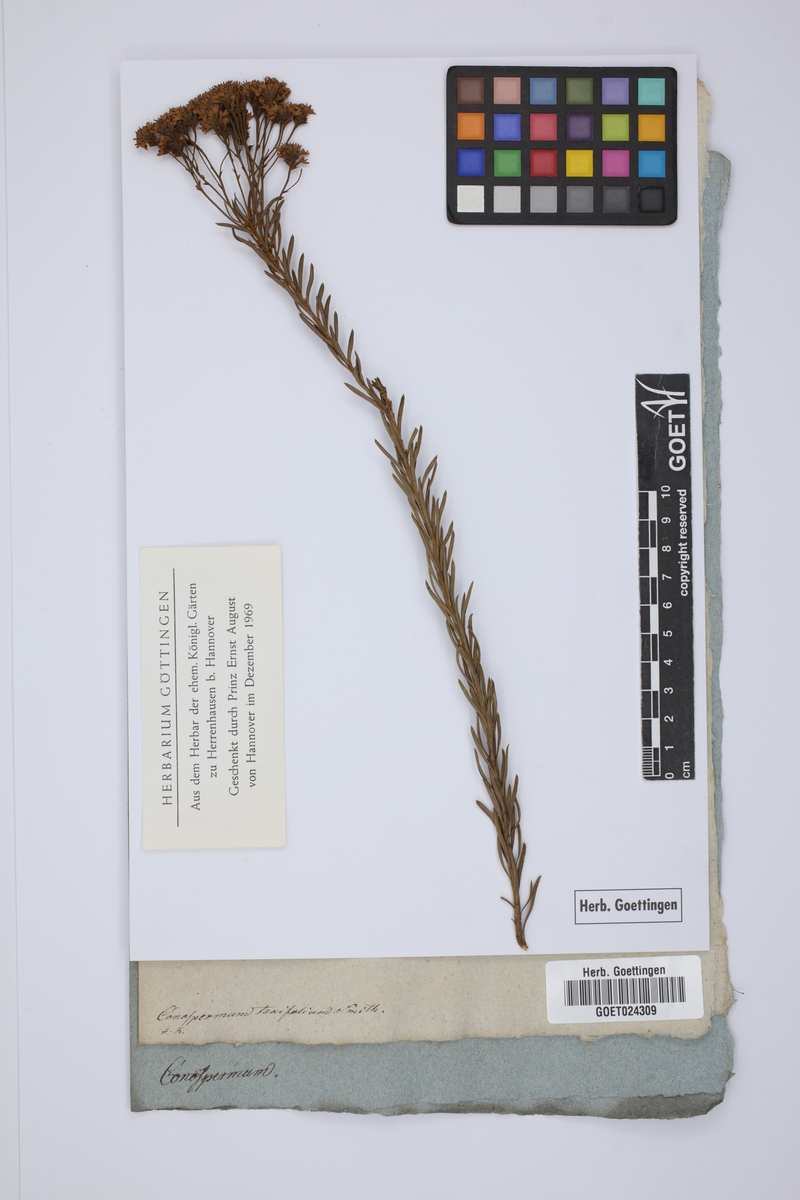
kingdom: Plantae
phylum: Tracheophyta
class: Magnoliopsida
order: Proteales
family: Proteaceae
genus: Conospermum
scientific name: Conospermum taxifolium
